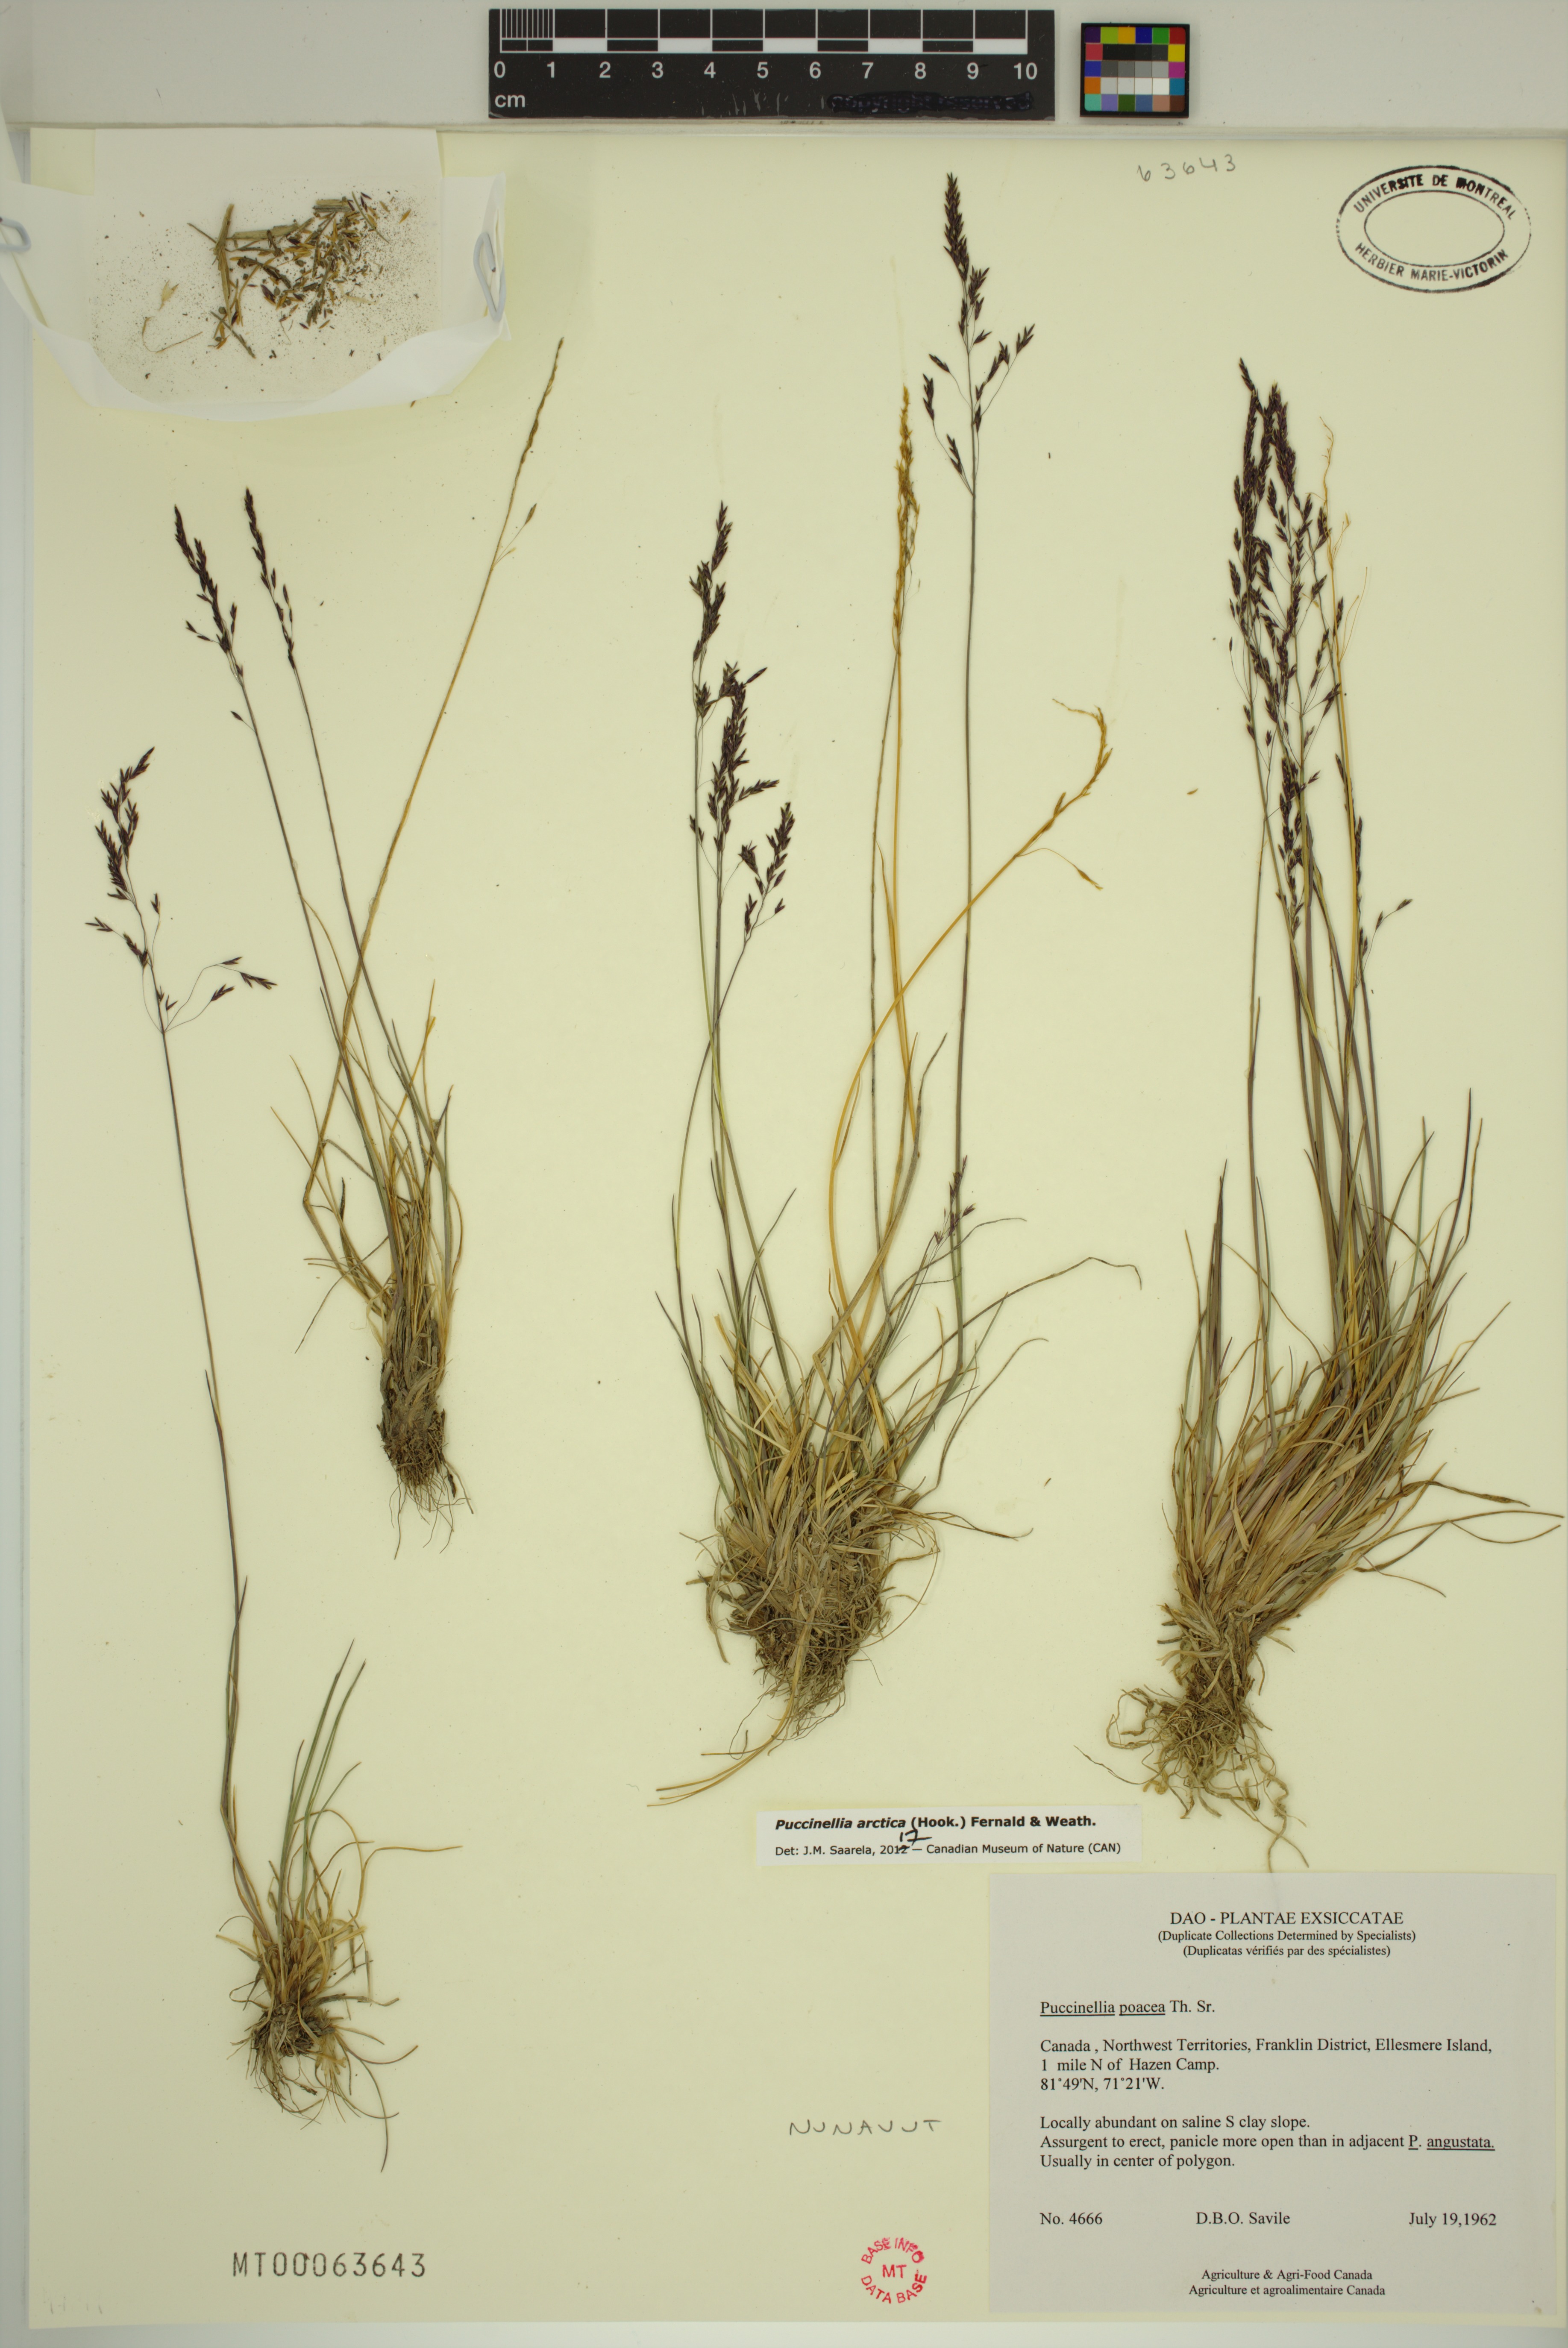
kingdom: Plantae
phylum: Tracheophyta
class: Liliopsida
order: Poales
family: Poaceae
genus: Puccinellia
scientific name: Puccinellia arctica
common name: Arctic alkali grass
